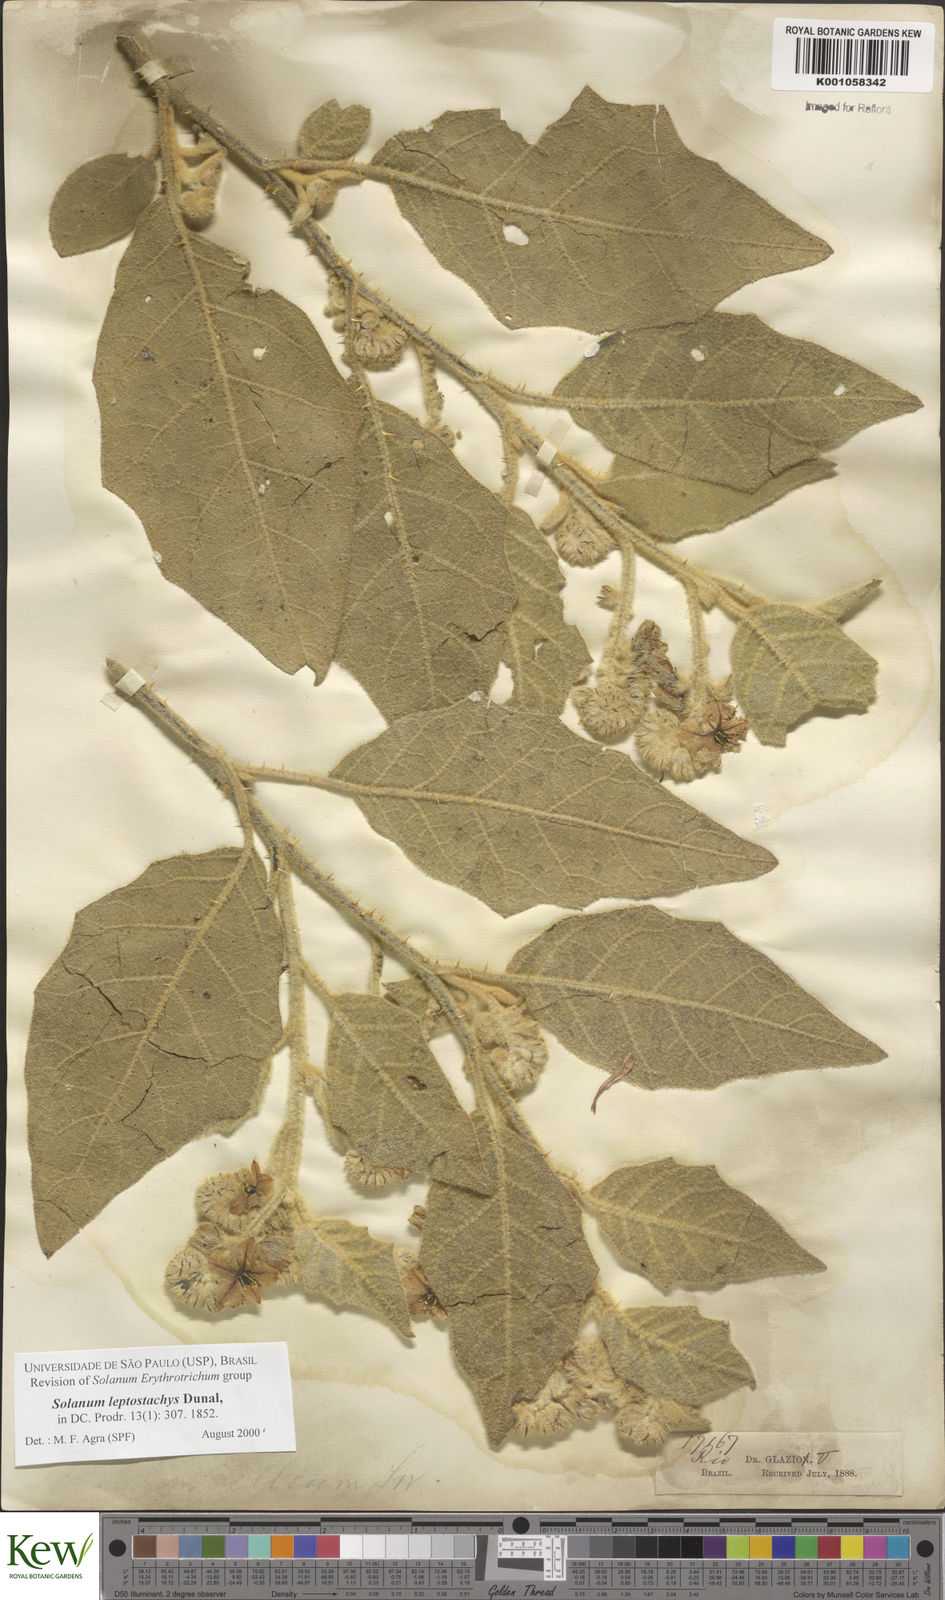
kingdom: Plantae
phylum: Tracheophyta
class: Magnoliopsida
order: Solanales
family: Solanaceae
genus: Solanum
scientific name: Solanum leptostachys
